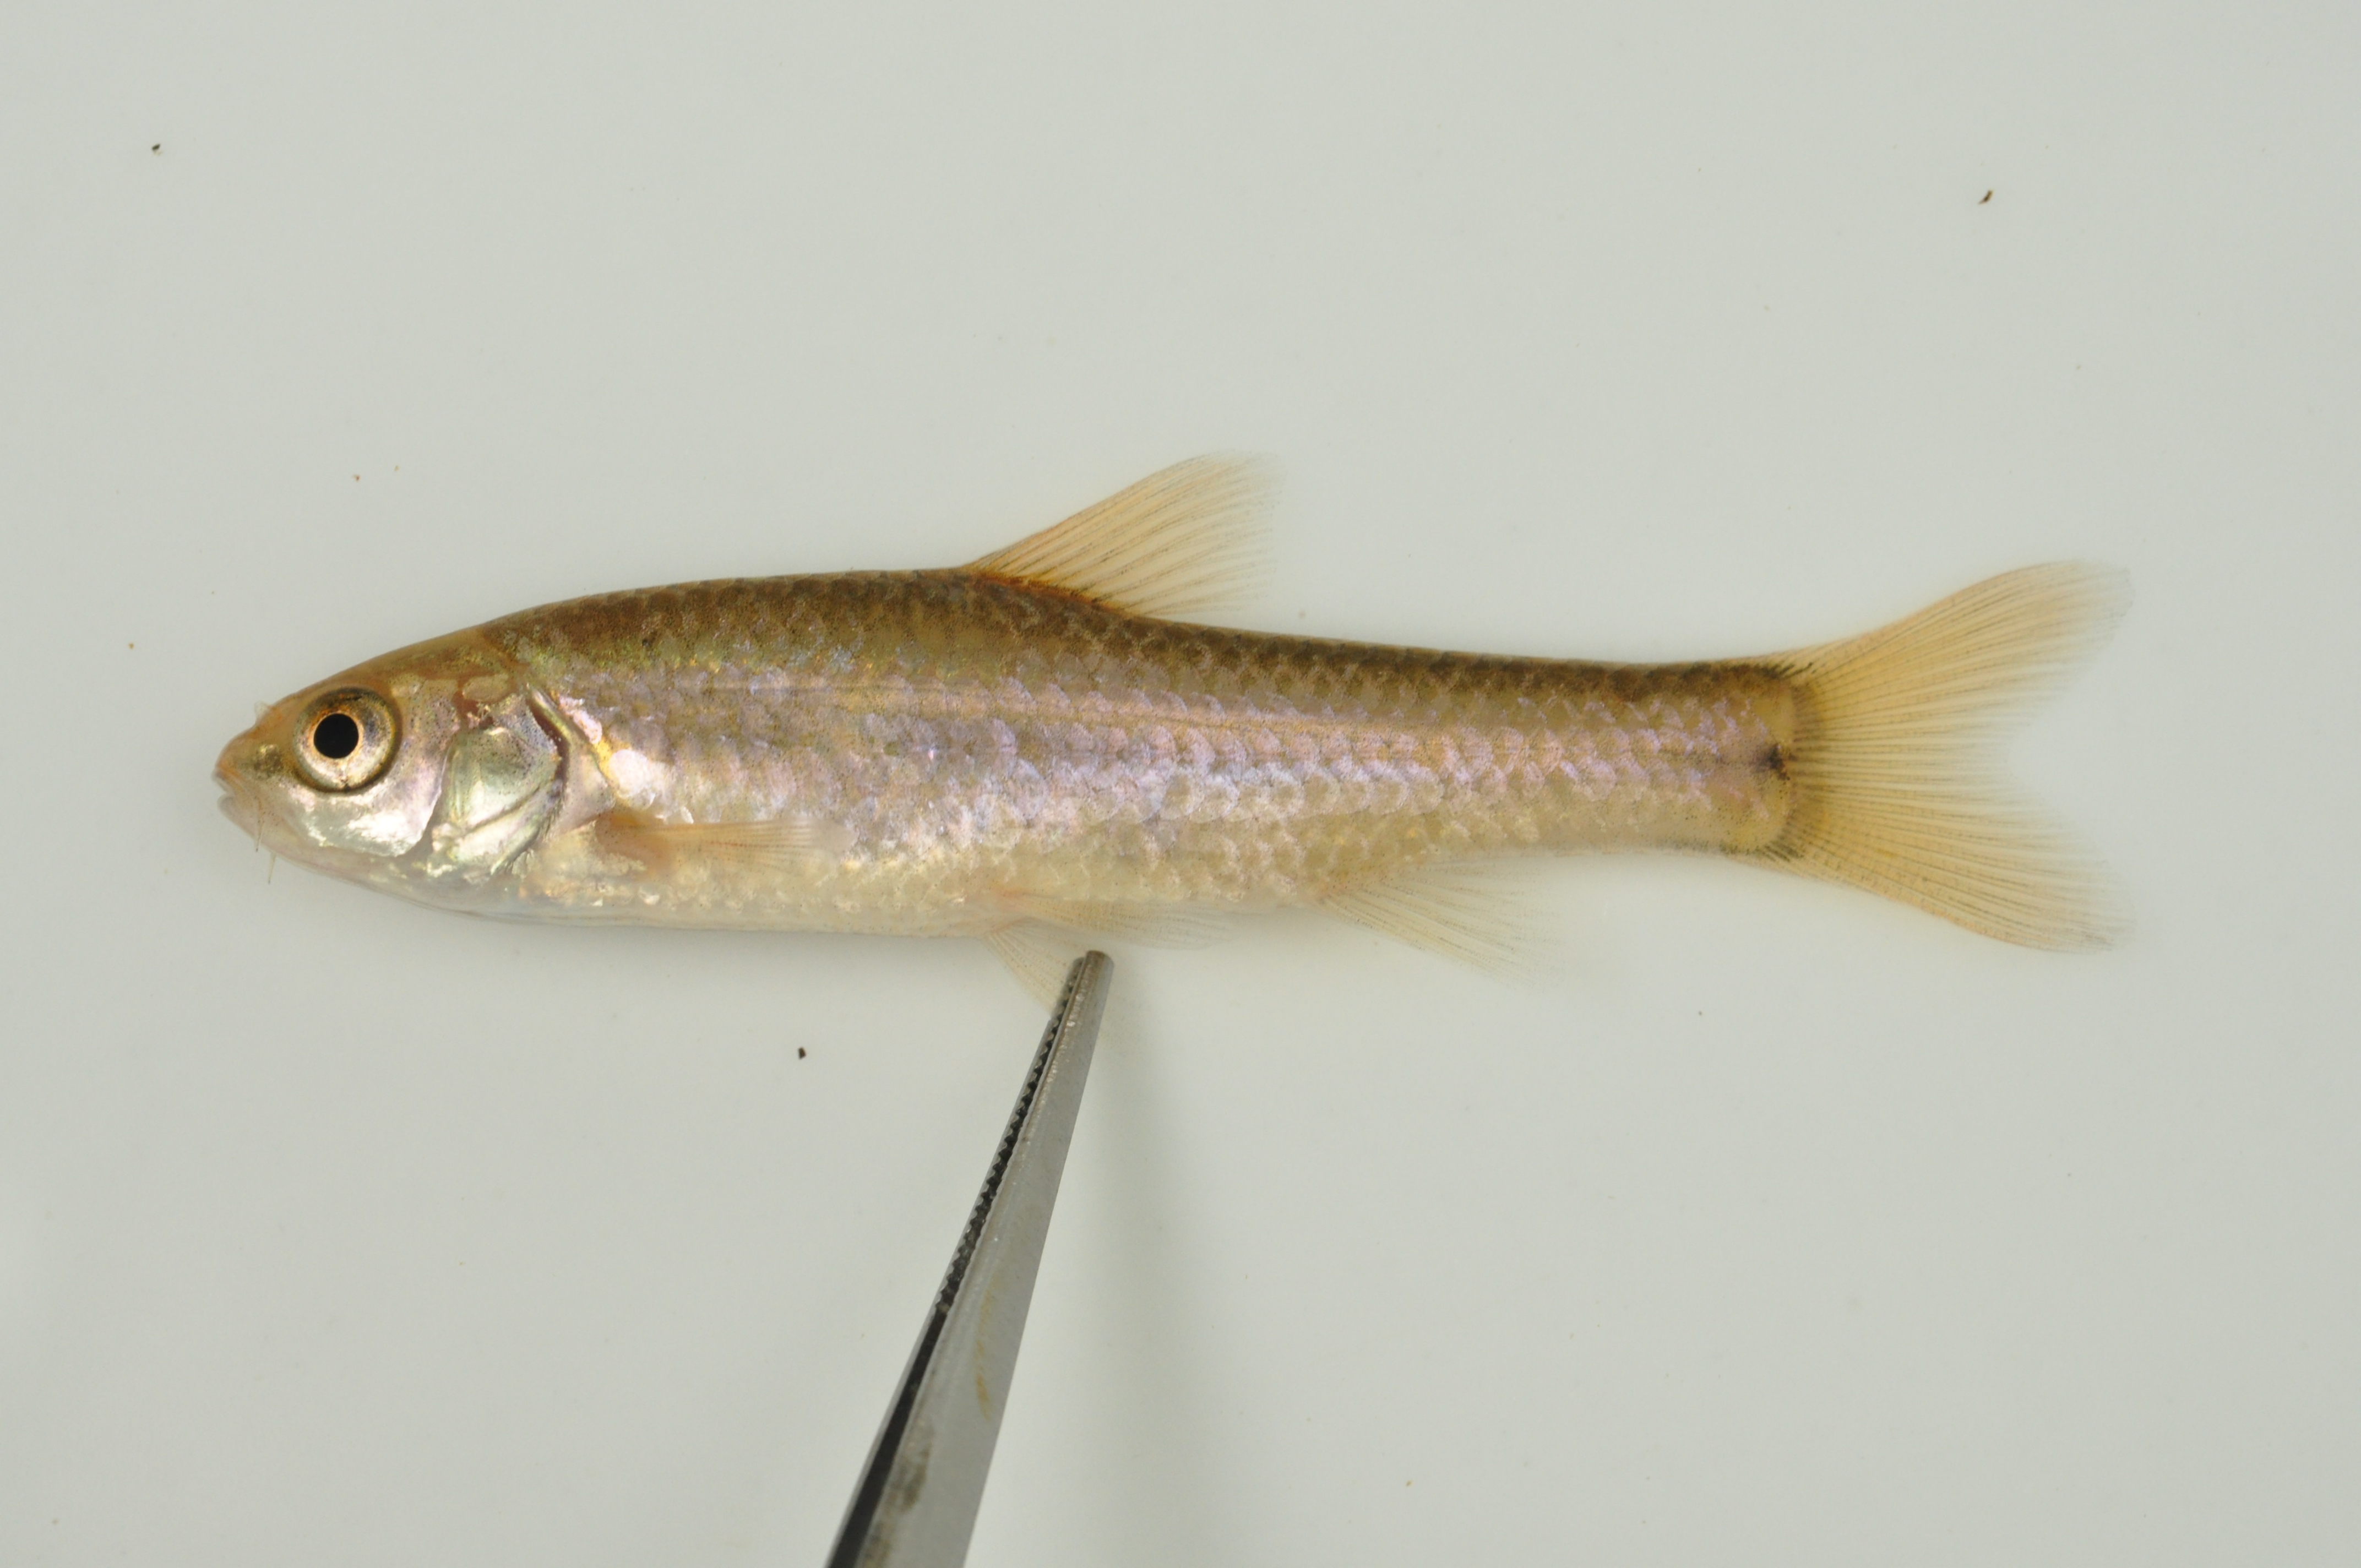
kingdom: Animalia
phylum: Chordata
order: Cypriniformes
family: Cyprinidae
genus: Enteromius
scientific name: Enteromius anoplus
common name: Chubbyhead barb
